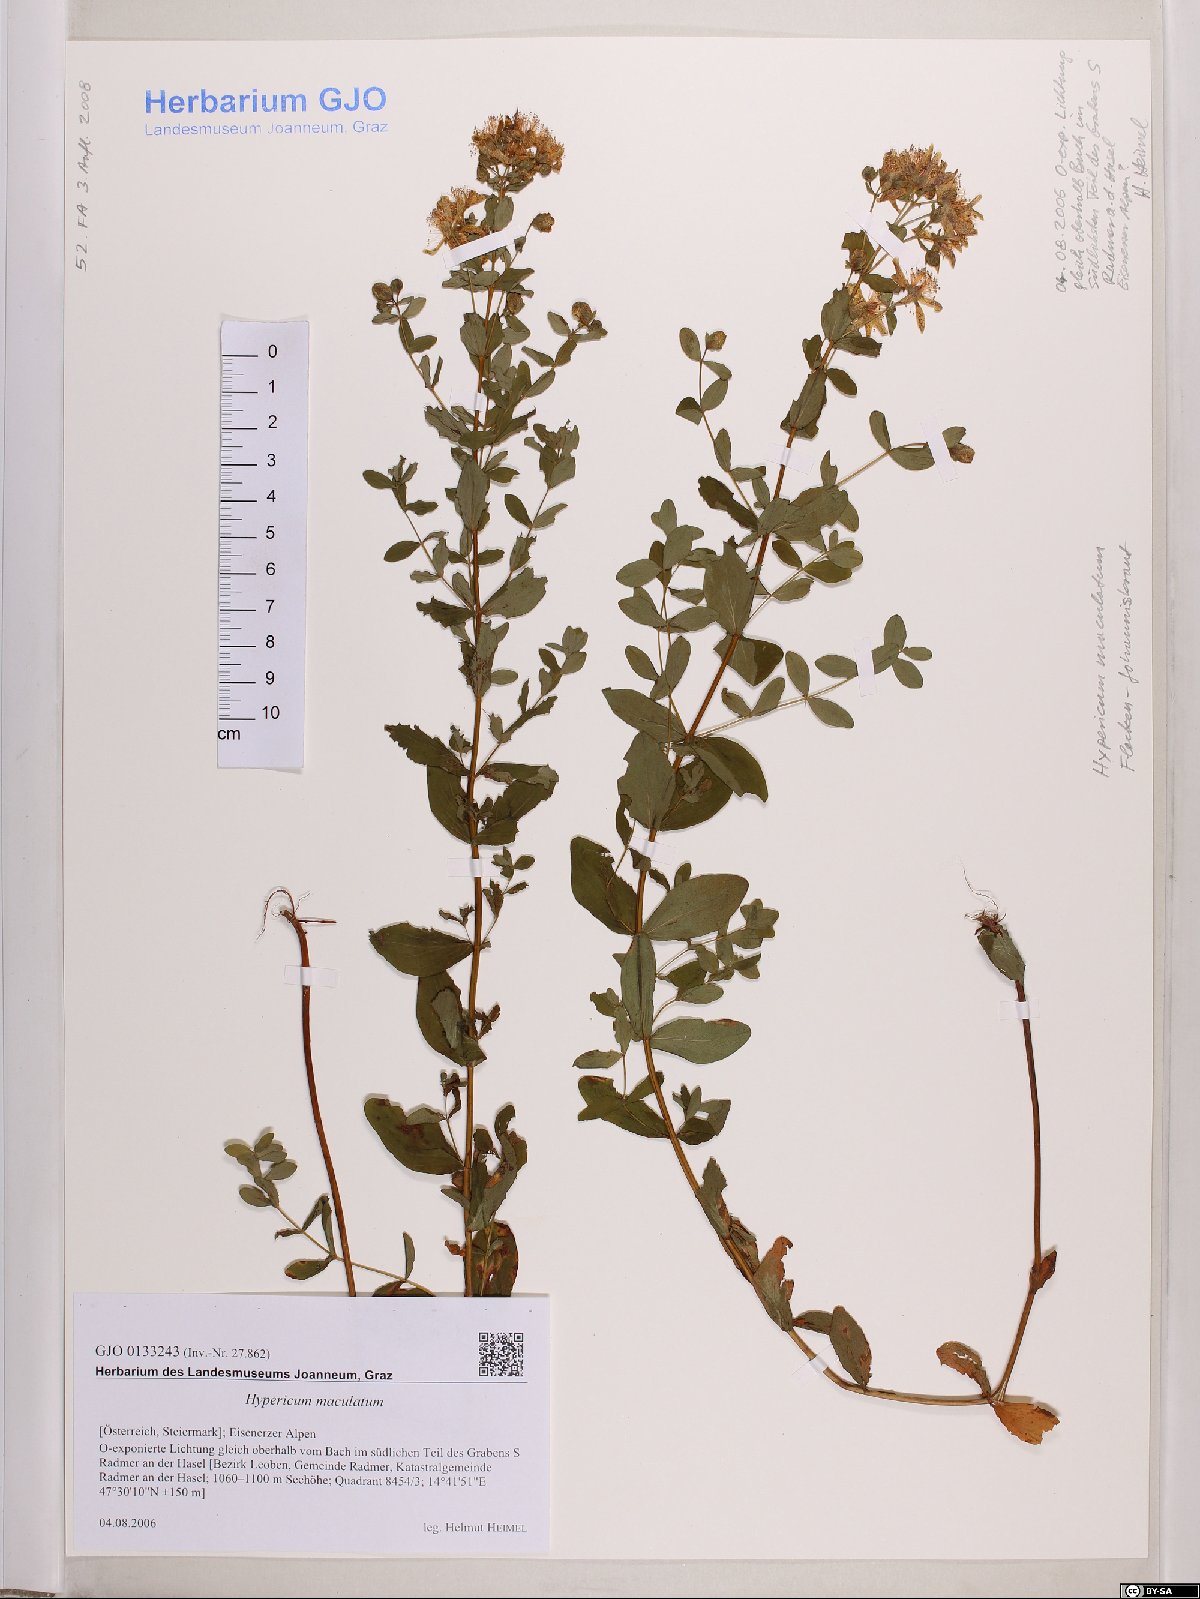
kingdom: Plantae
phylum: Tracheophyta
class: Magnoliopsida
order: Malpighiales
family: Hypericaceae
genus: Hypericum
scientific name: Hypericum maculatum
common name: Imperforate st. john's-wort
